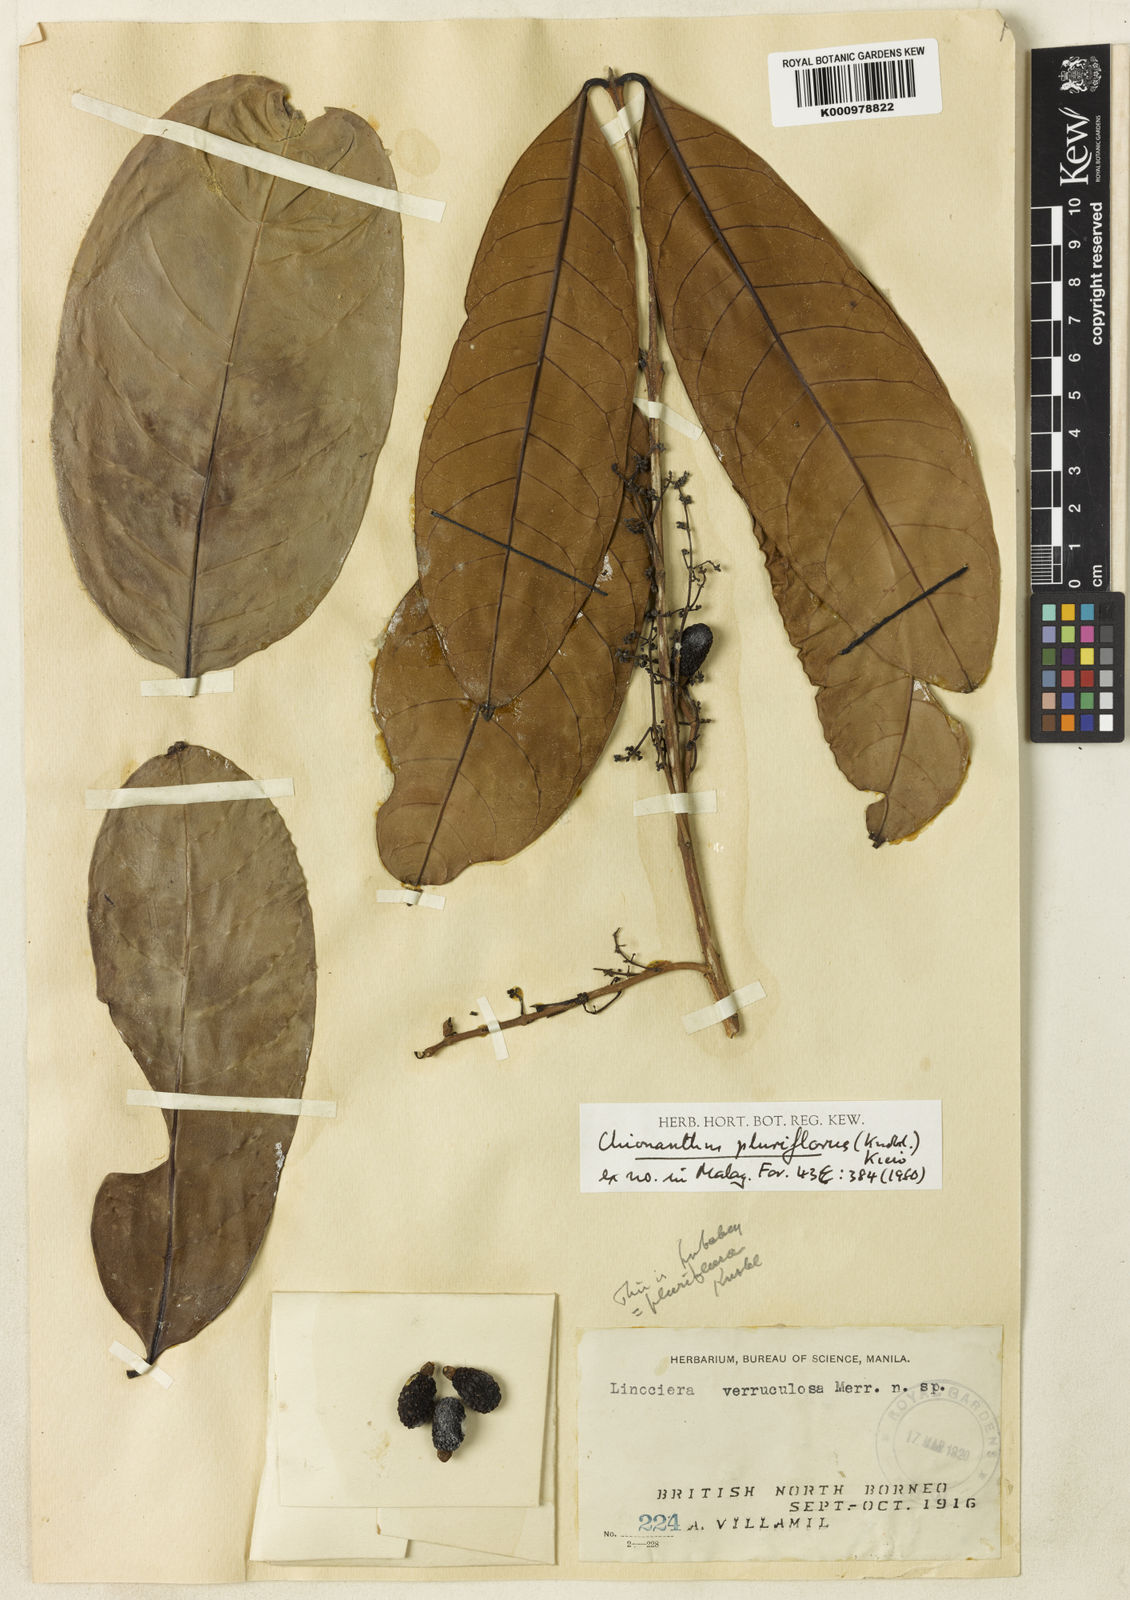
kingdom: Plantae
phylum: Tracheophyta
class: Magnoliopsida
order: Lamiales
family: Oleaceae
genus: Chionanthus
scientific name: Chionanthus pluriflorus
